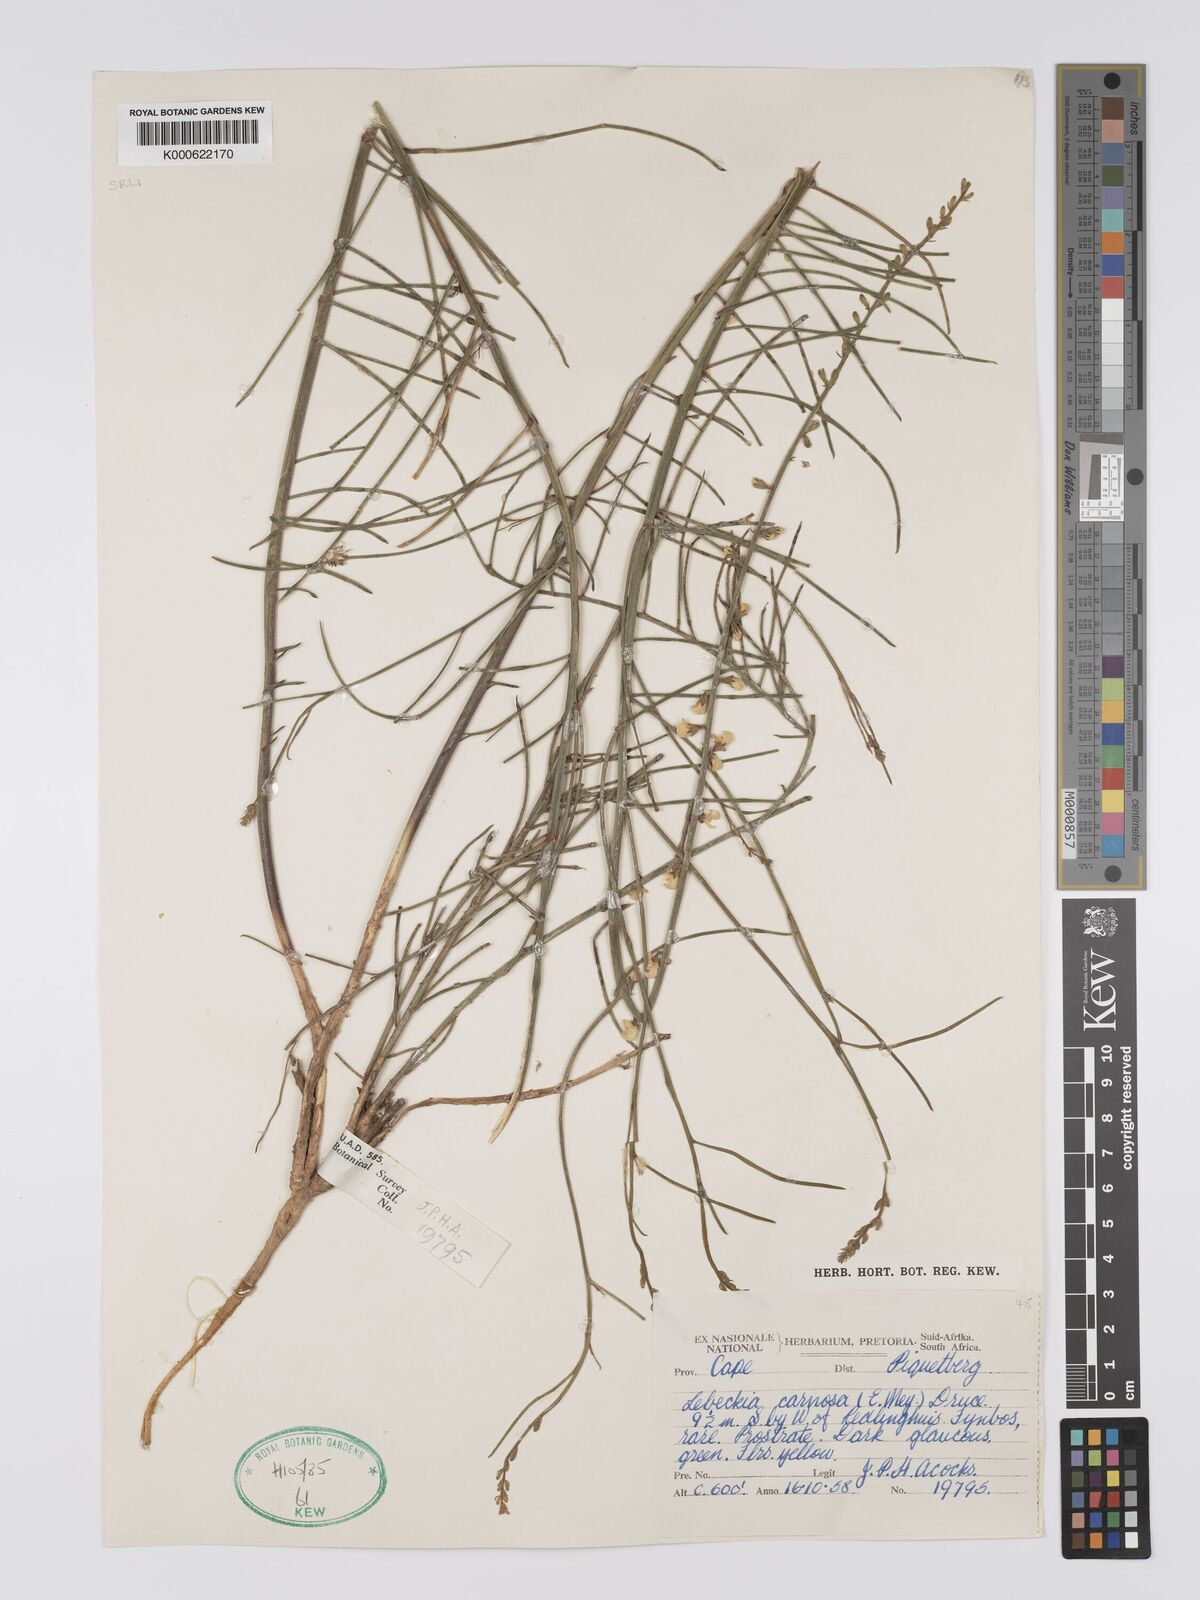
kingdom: Plantae
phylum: Tracheophyta
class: Magnoliopsida
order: Fabales
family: Fabaceae
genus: Lebeckia
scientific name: Lebeckia contaminata
